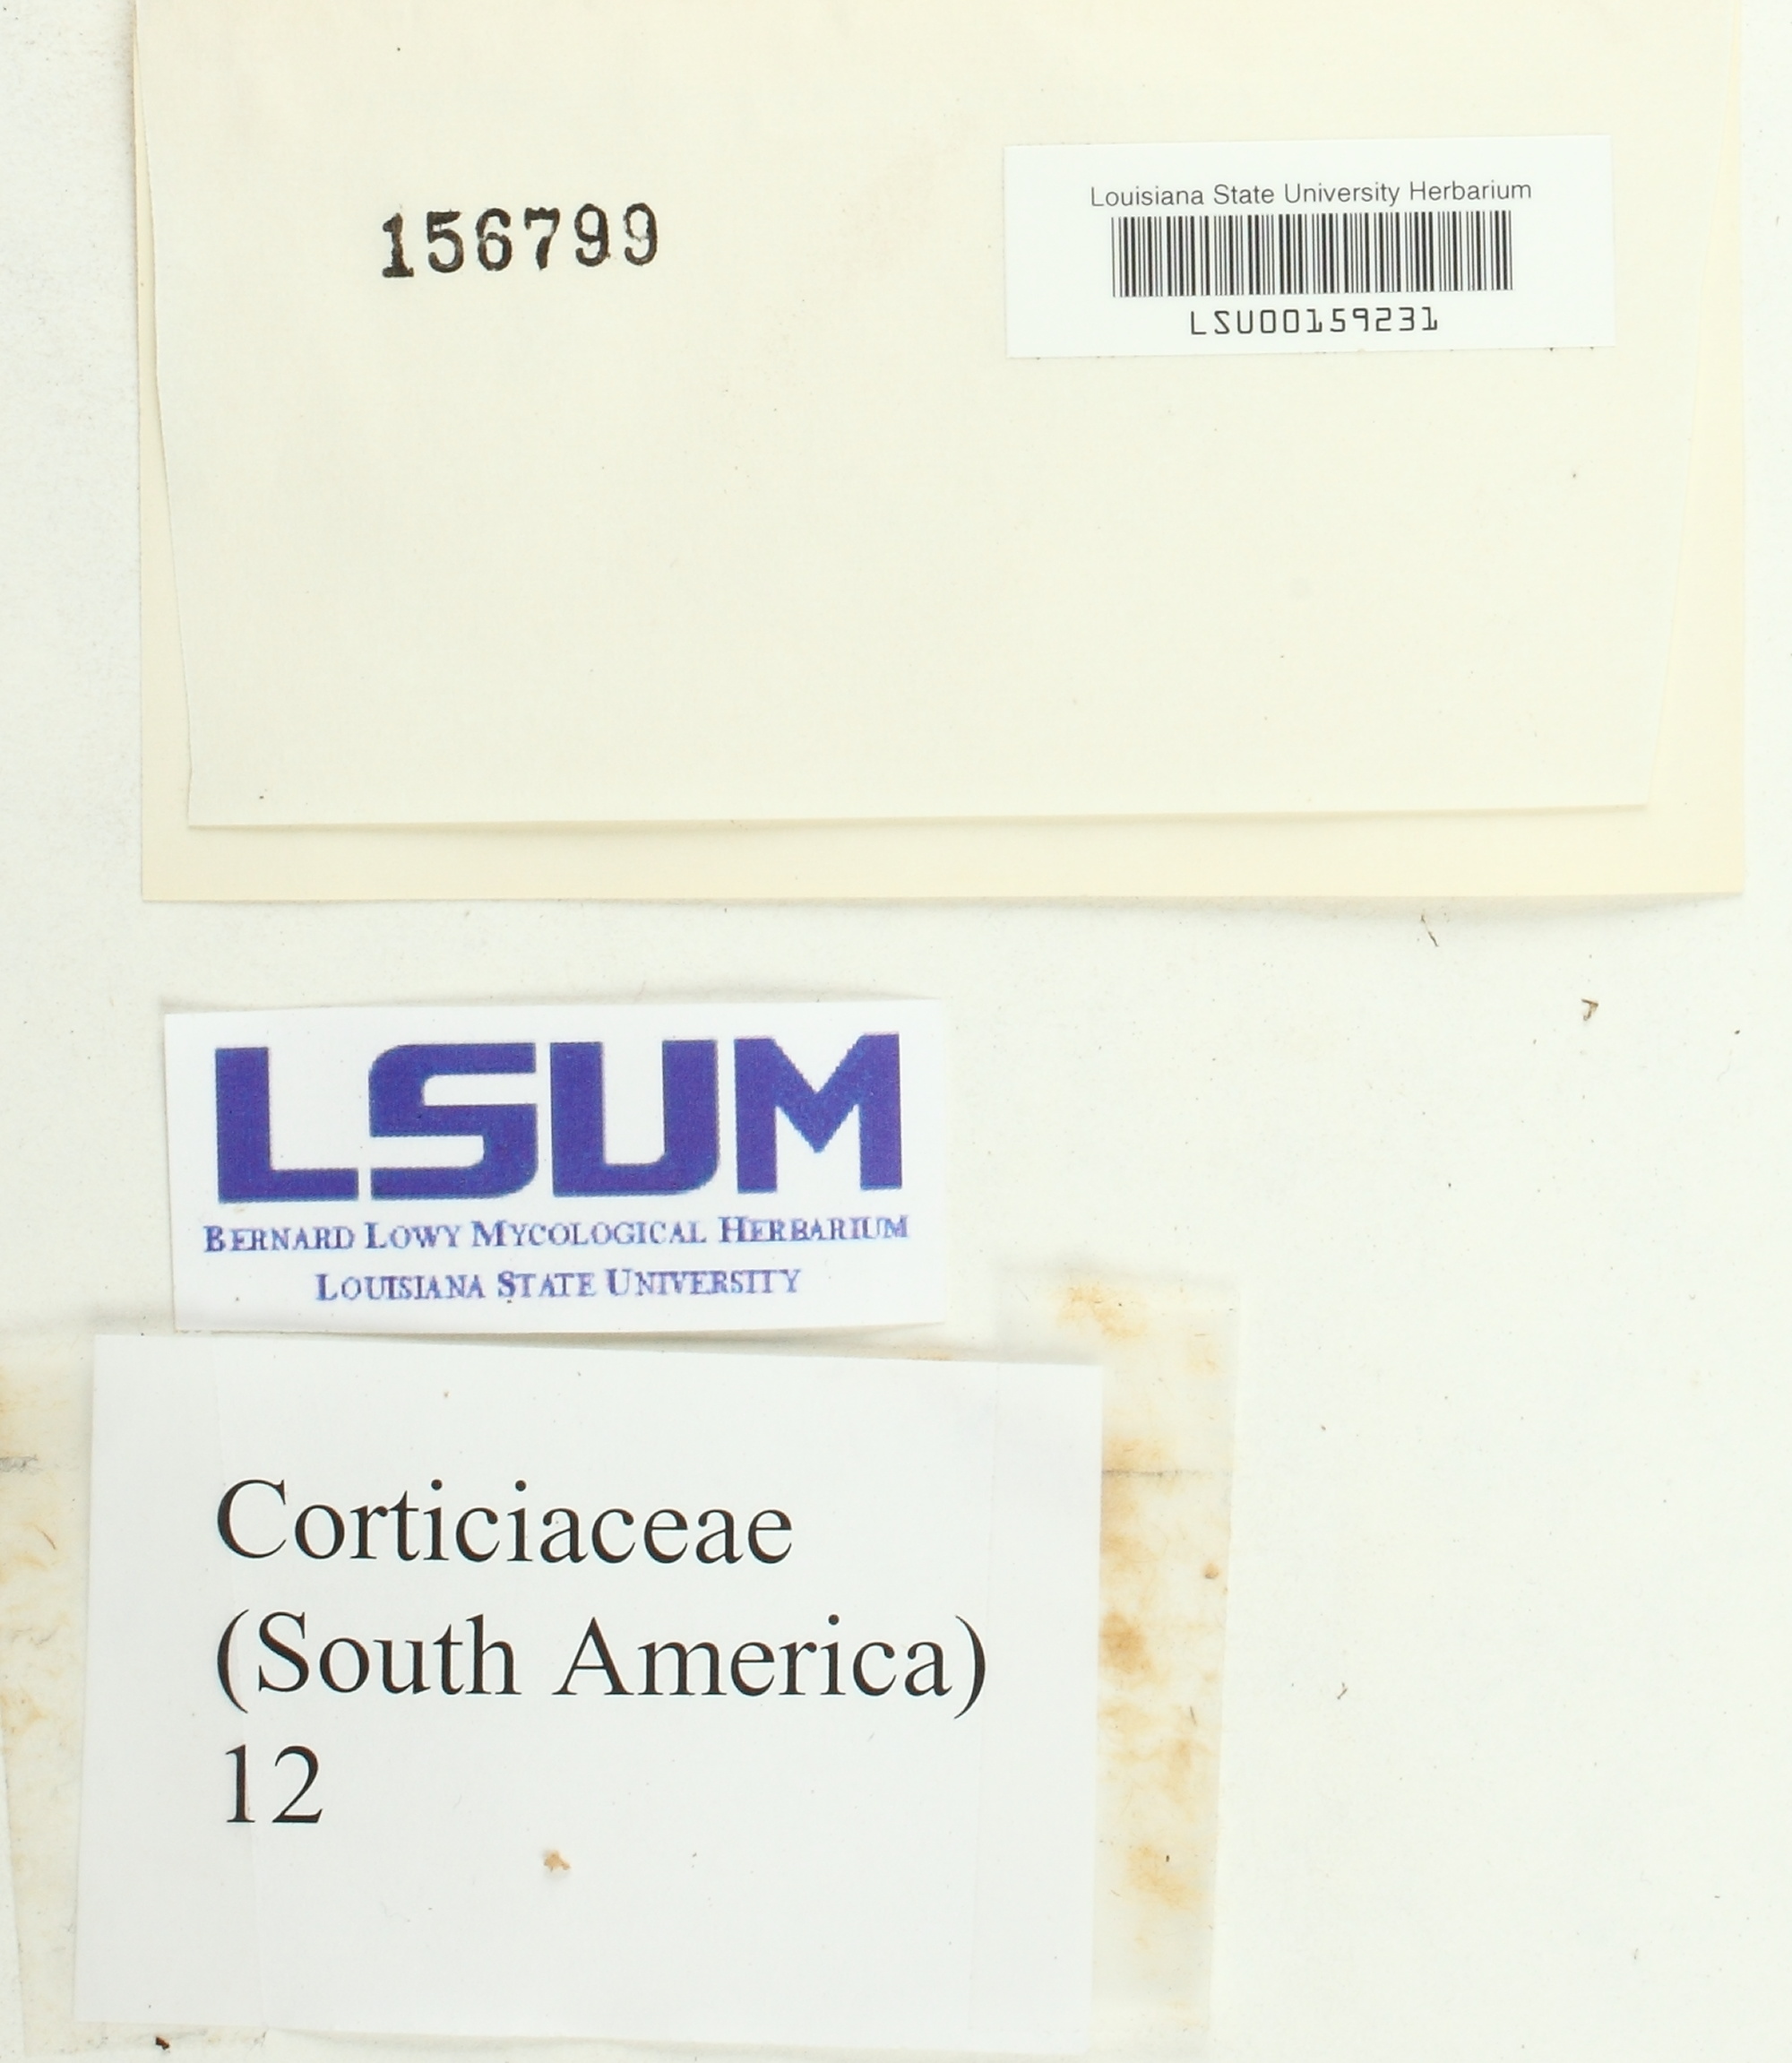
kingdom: Fungi
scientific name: Fungi
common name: Fungi
